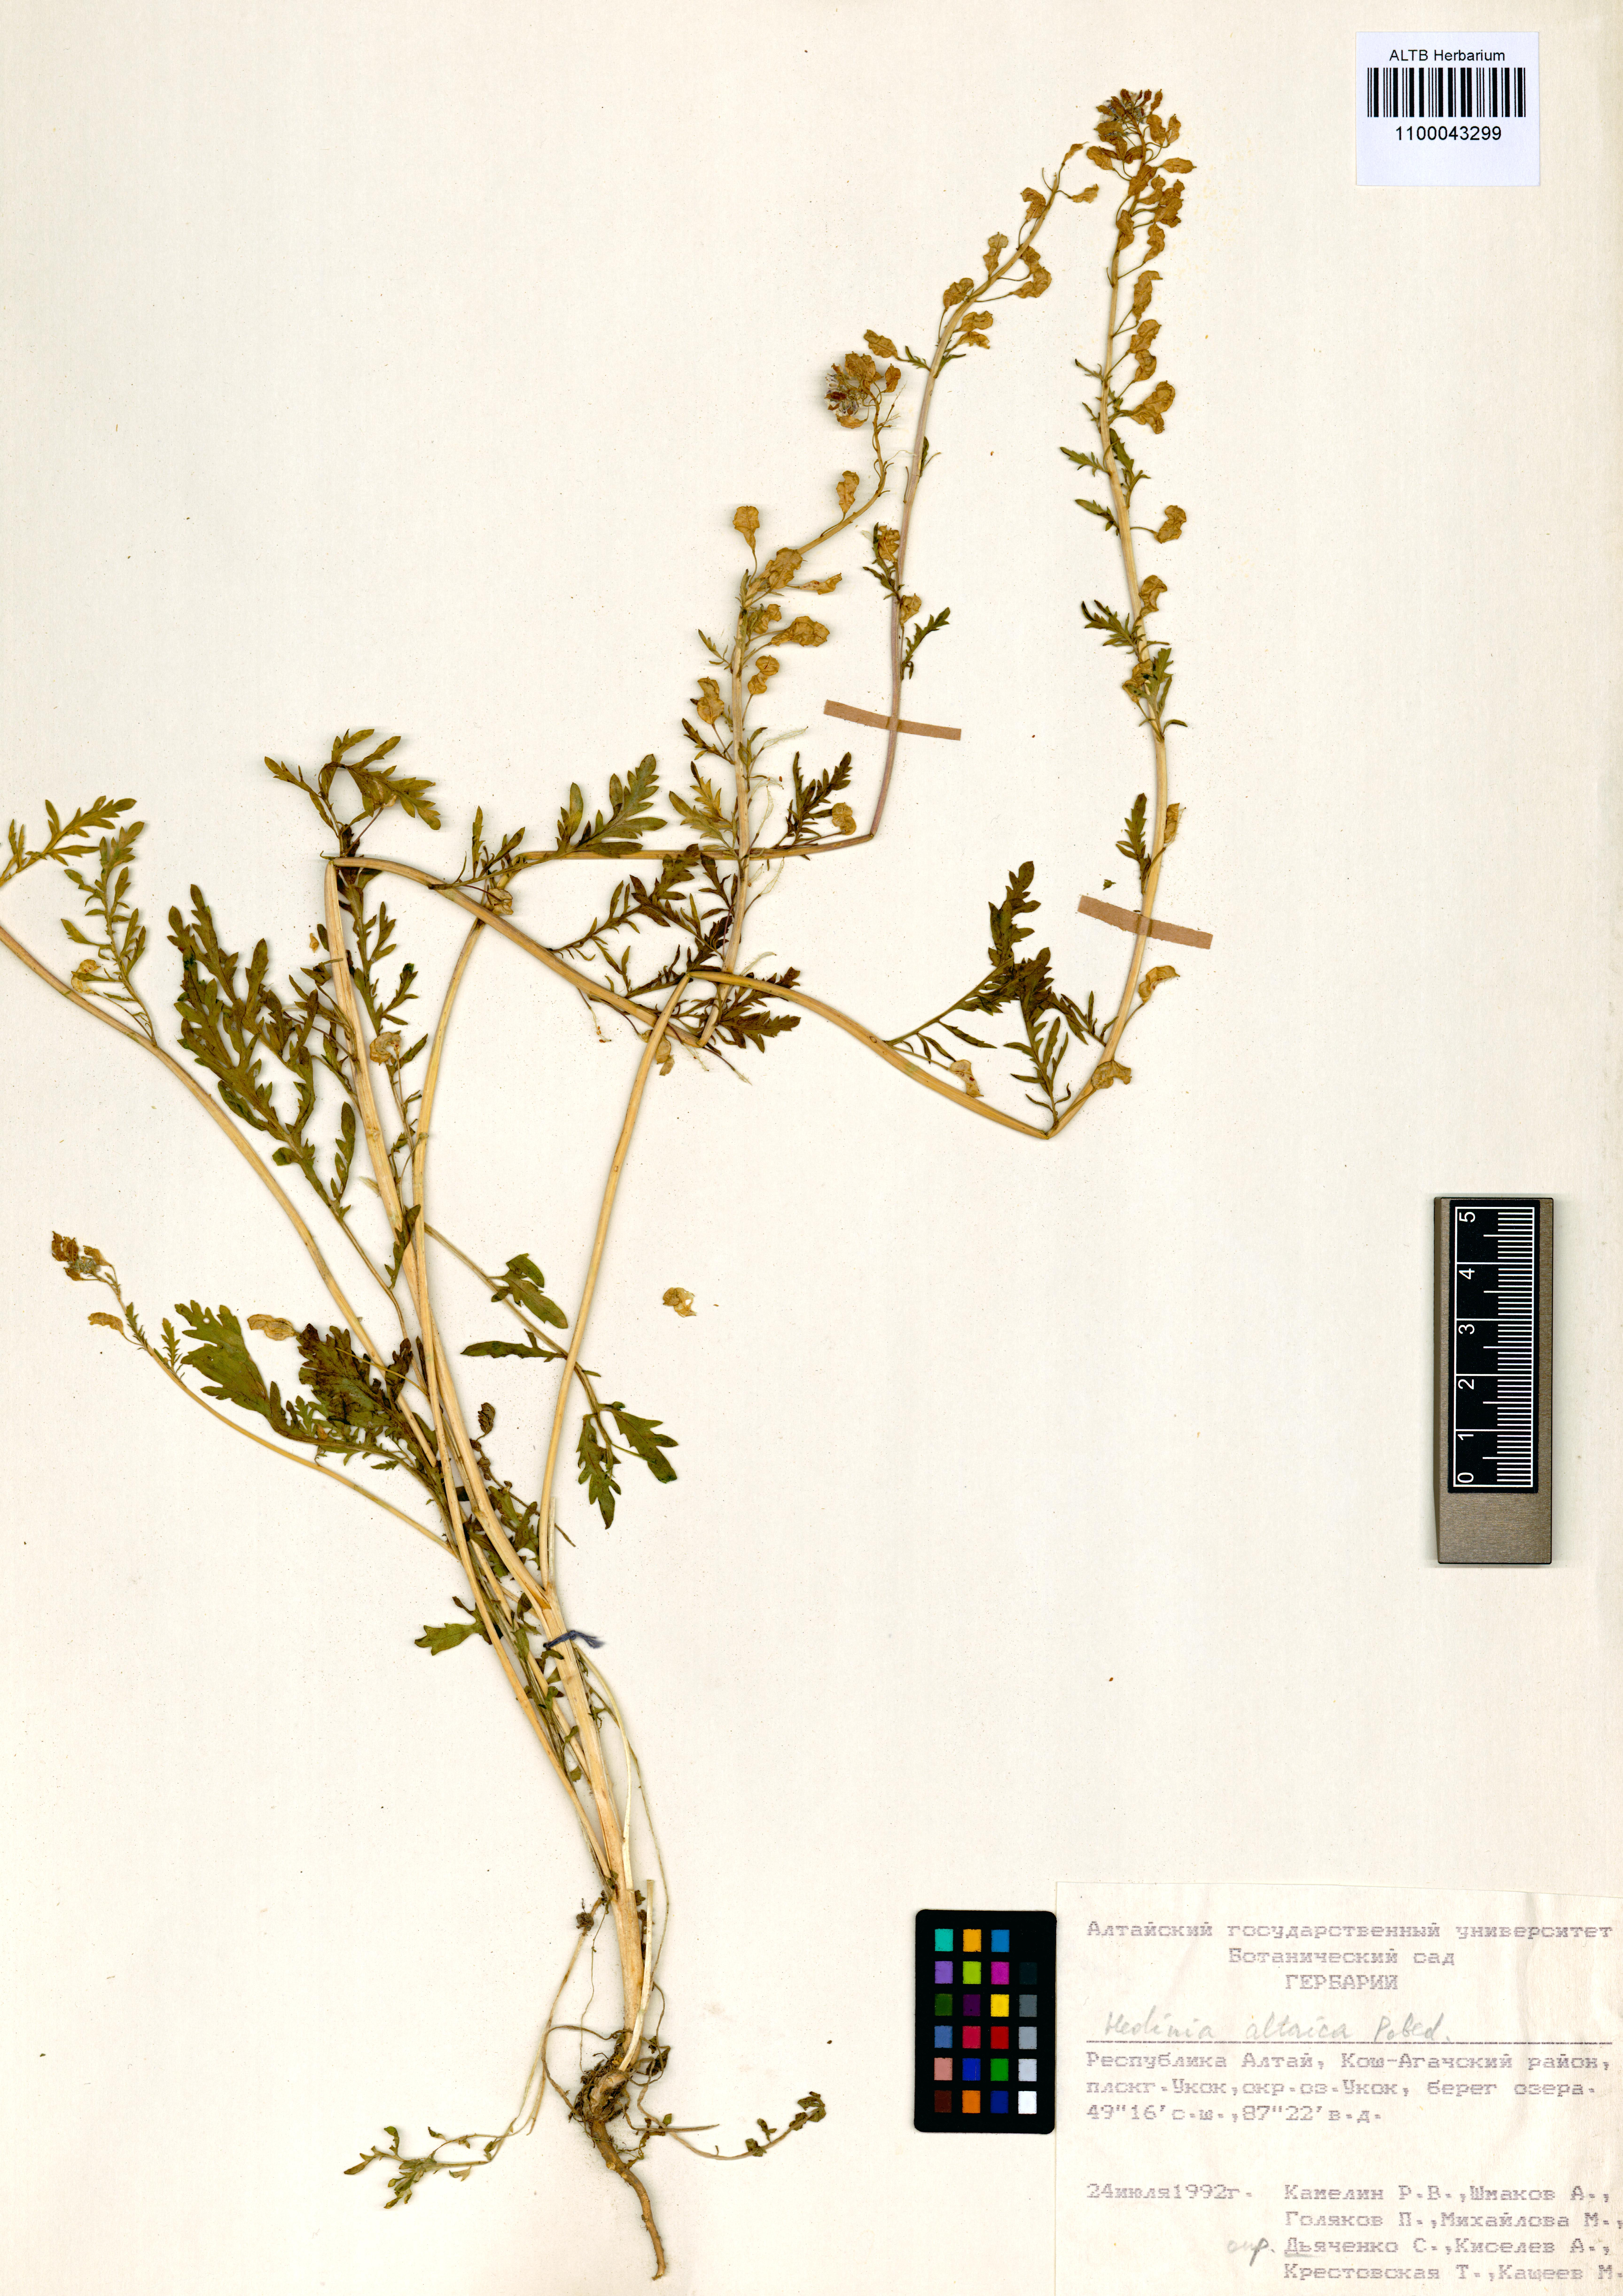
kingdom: Plantae
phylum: Tracheophyta
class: Magnoliopsida
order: Brassicales
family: Brassicaceae
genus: Smelowskia
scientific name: Smelowskia altaica
